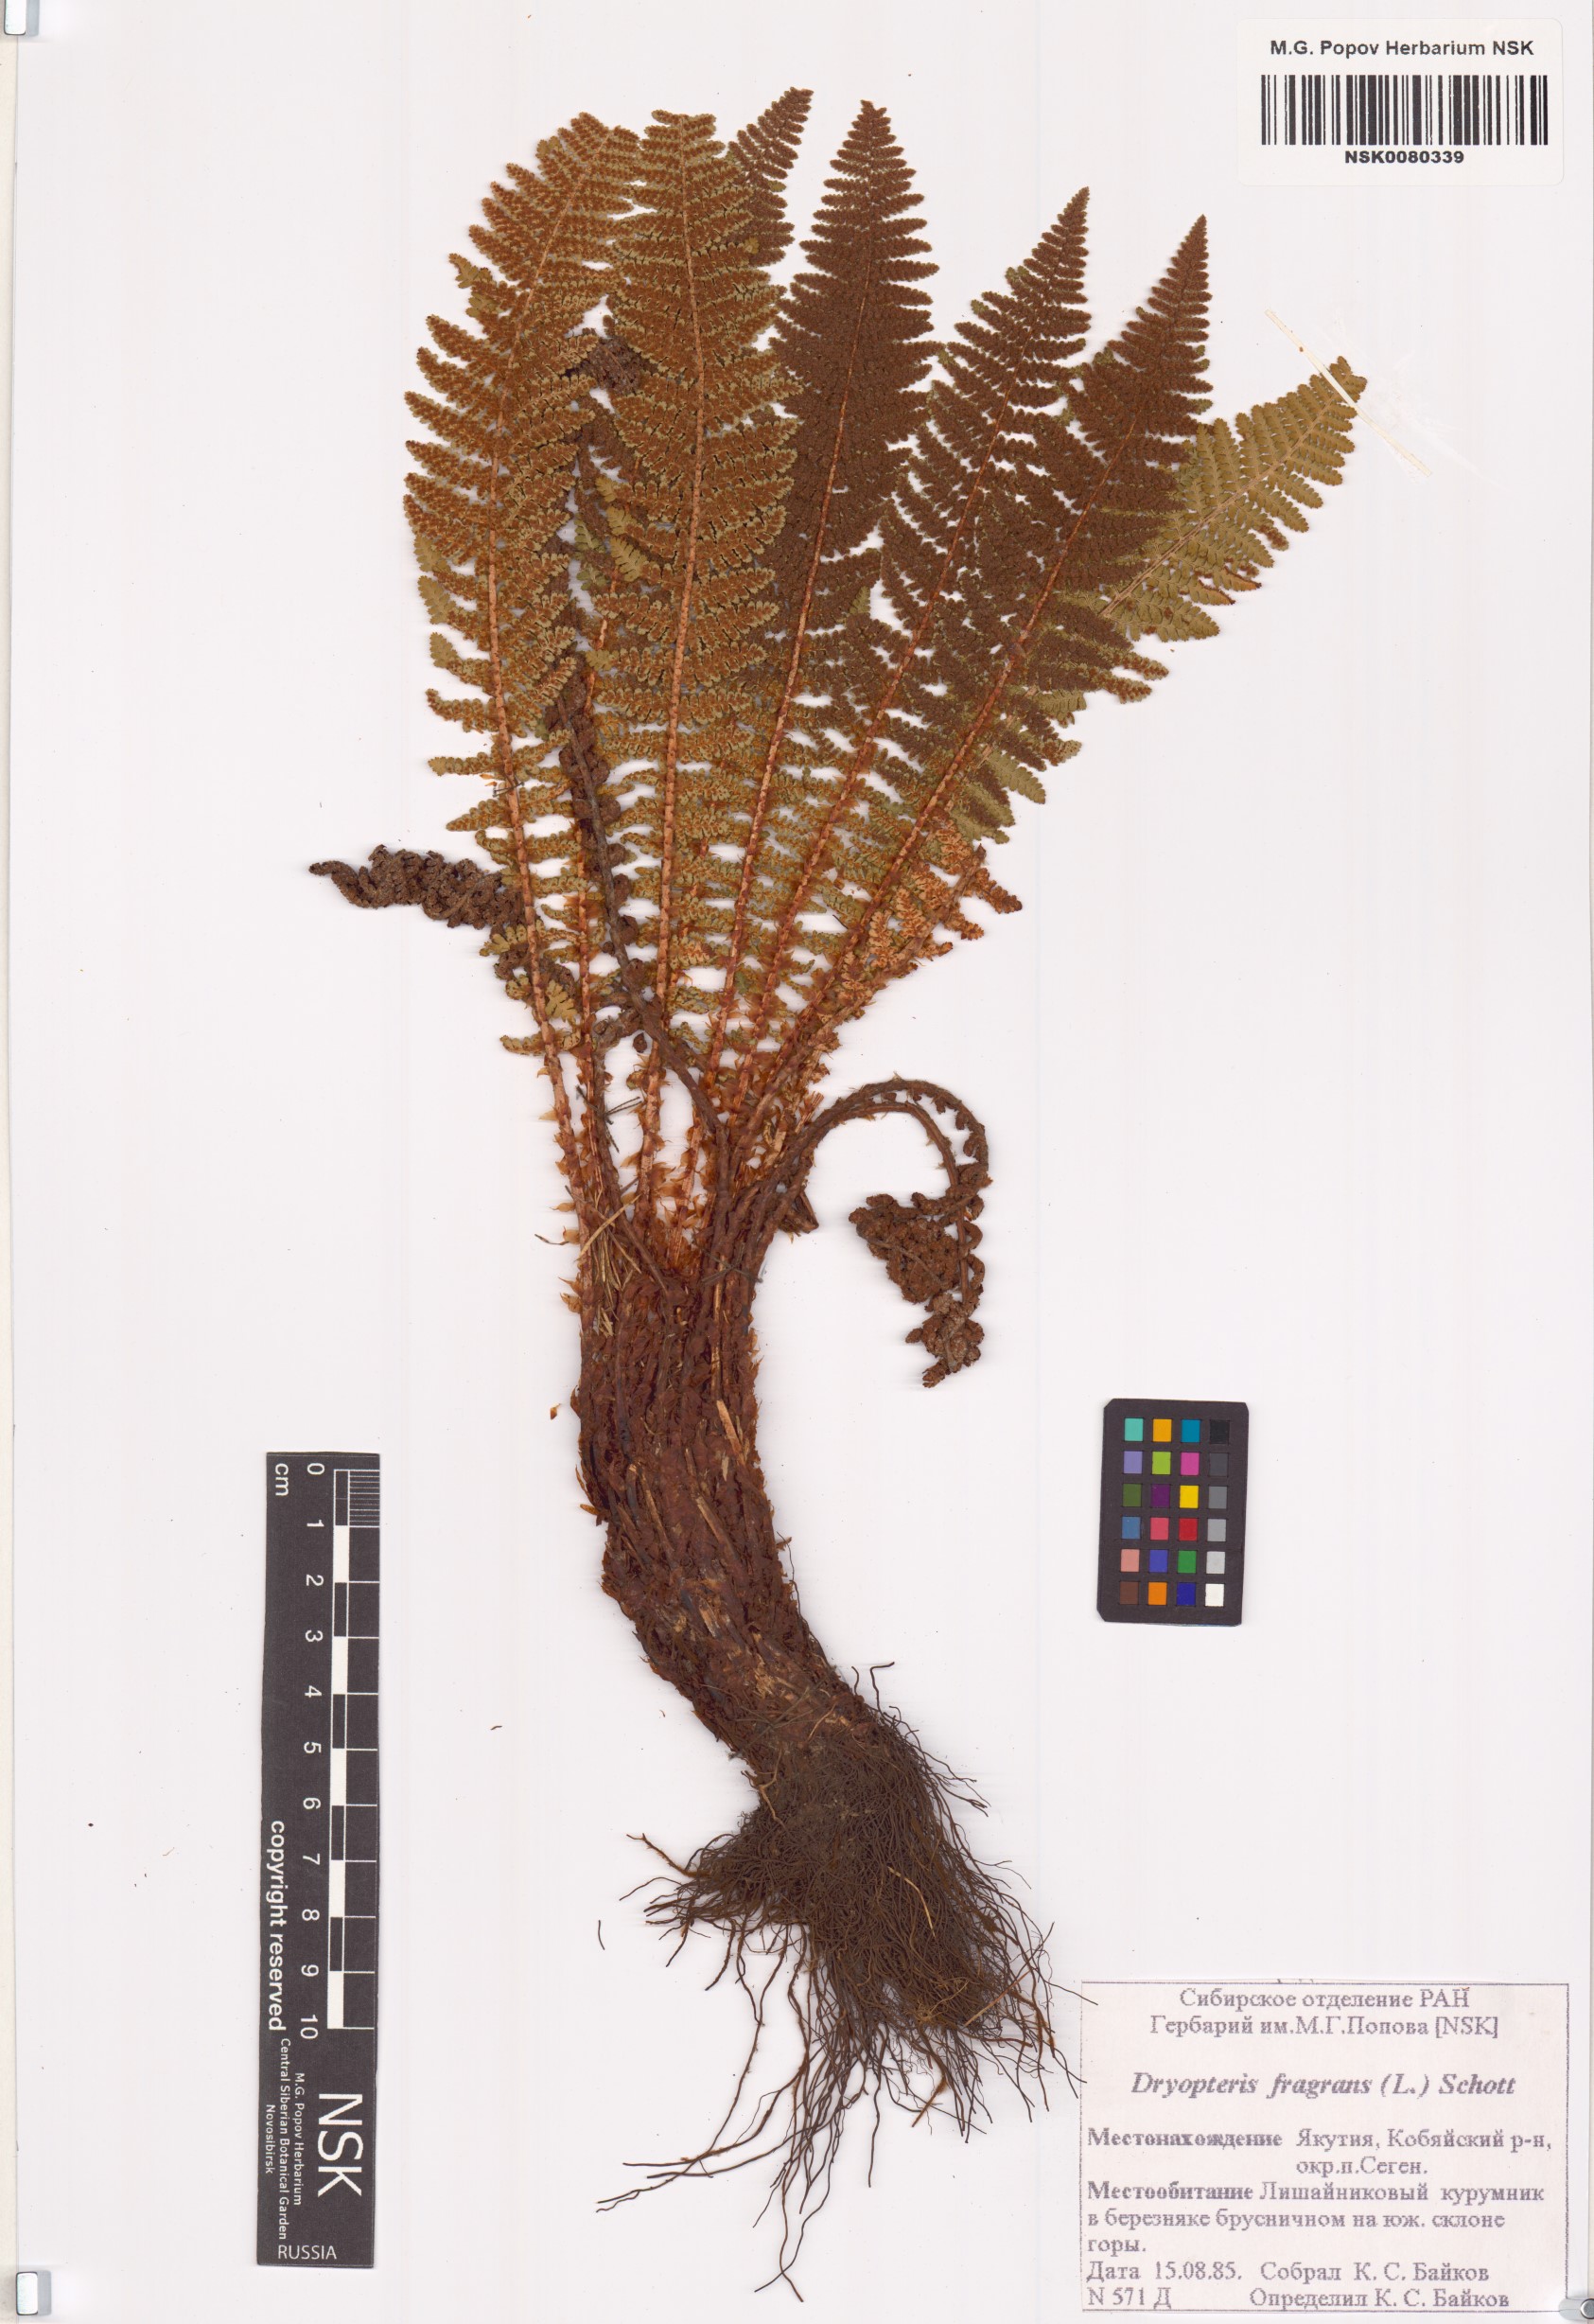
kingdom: Plantae
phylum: Tracheophyta
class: Polypodiopsida
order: Polypodiales
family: Dryopteridaceae
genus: Dryopteris
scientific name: Dryopteris fragrans
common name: Fragrant wood fern
